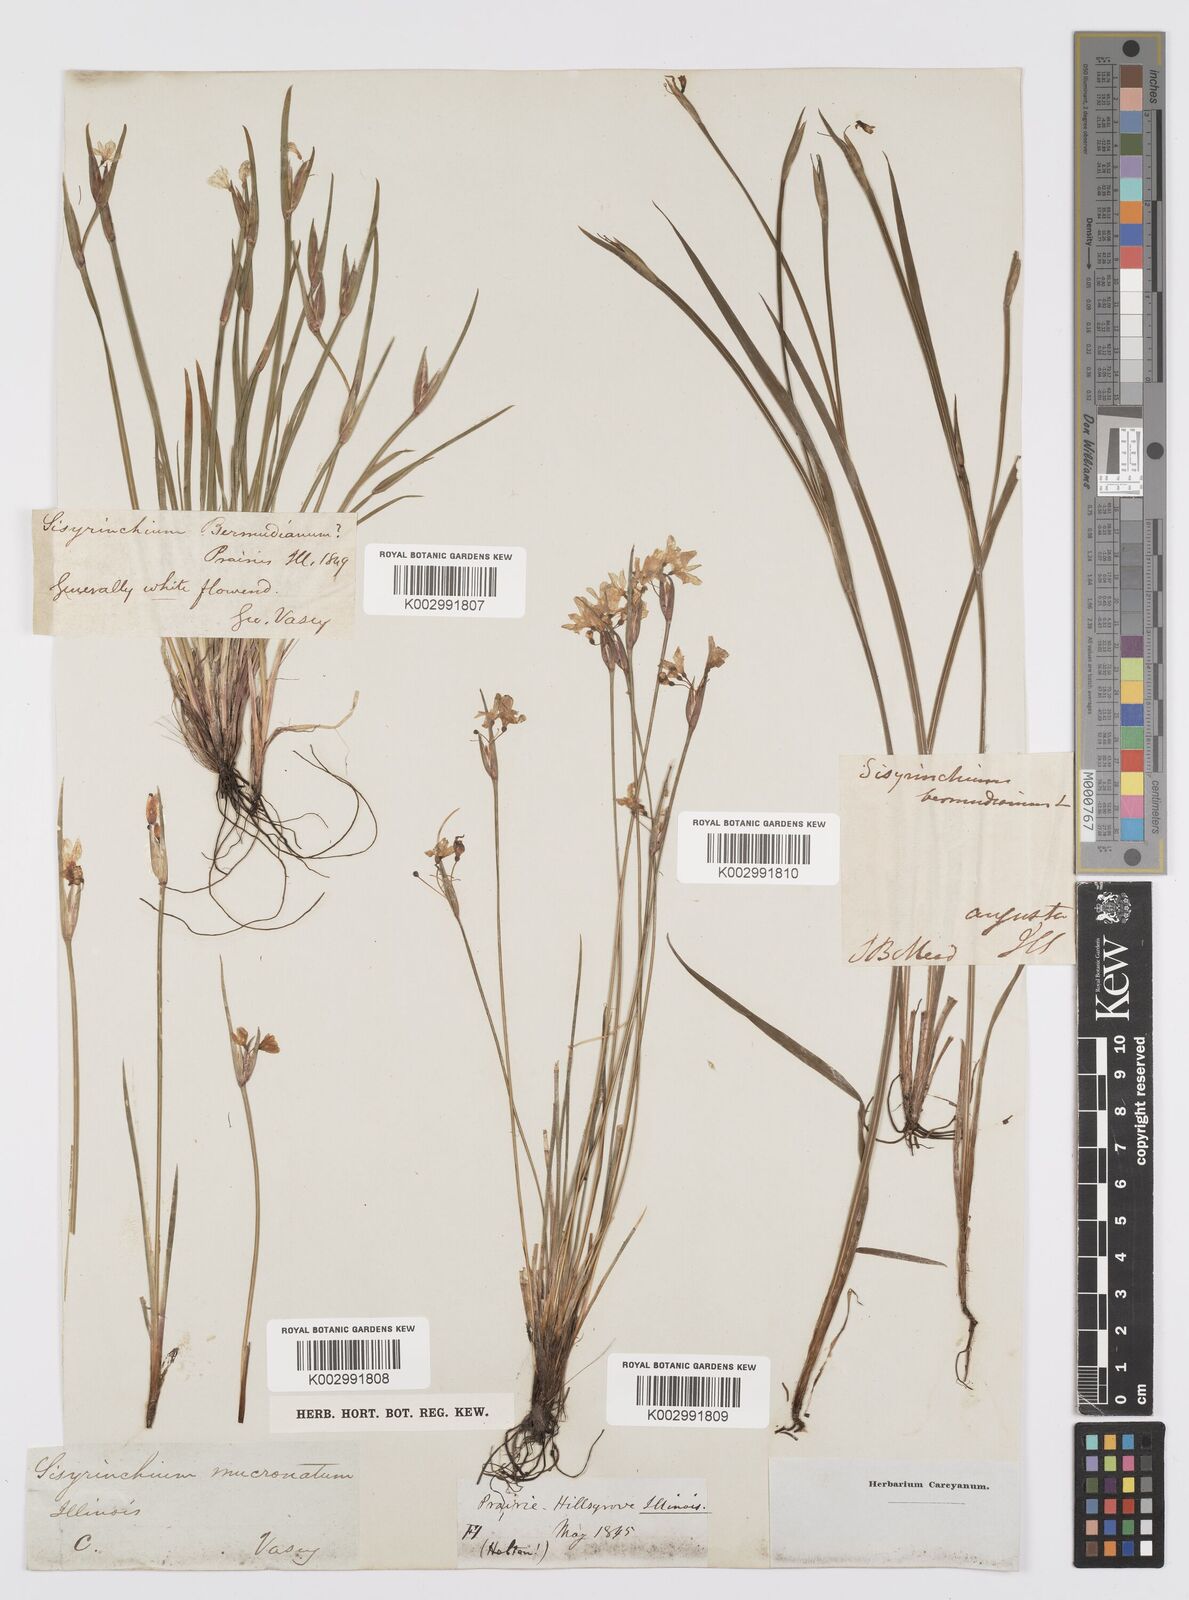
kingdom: Plantae
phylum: Tracheophyta
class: Liliopsida
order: Asparagales
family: Iridaceae
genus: Sisyrinchium
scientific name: Sisyrinchium bermudiana
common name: Blue-eyed-grass
